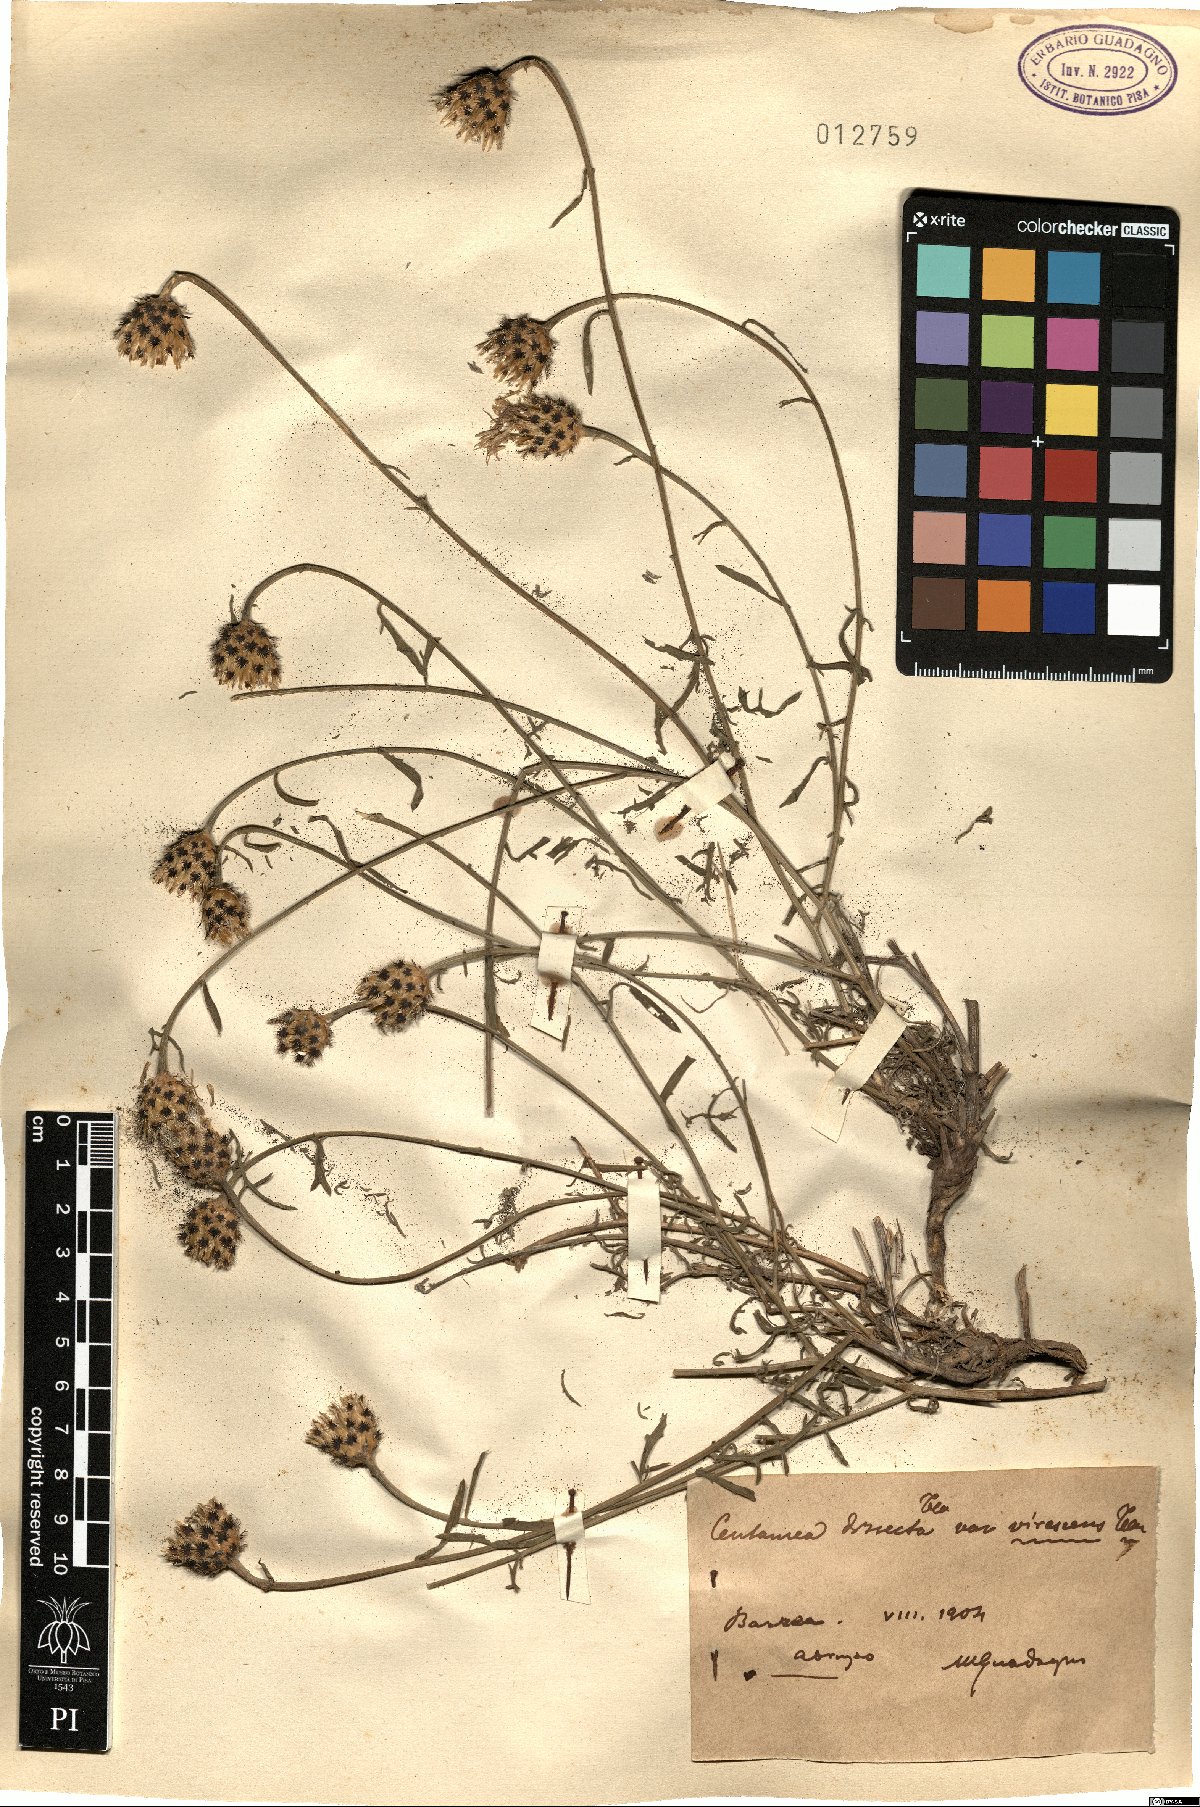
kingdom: Plantae
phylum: Tracheophyta
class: Magnoliopsida
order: Asterales
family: Asteraceae
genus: Centaurea
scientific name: Centaurea tenorei
